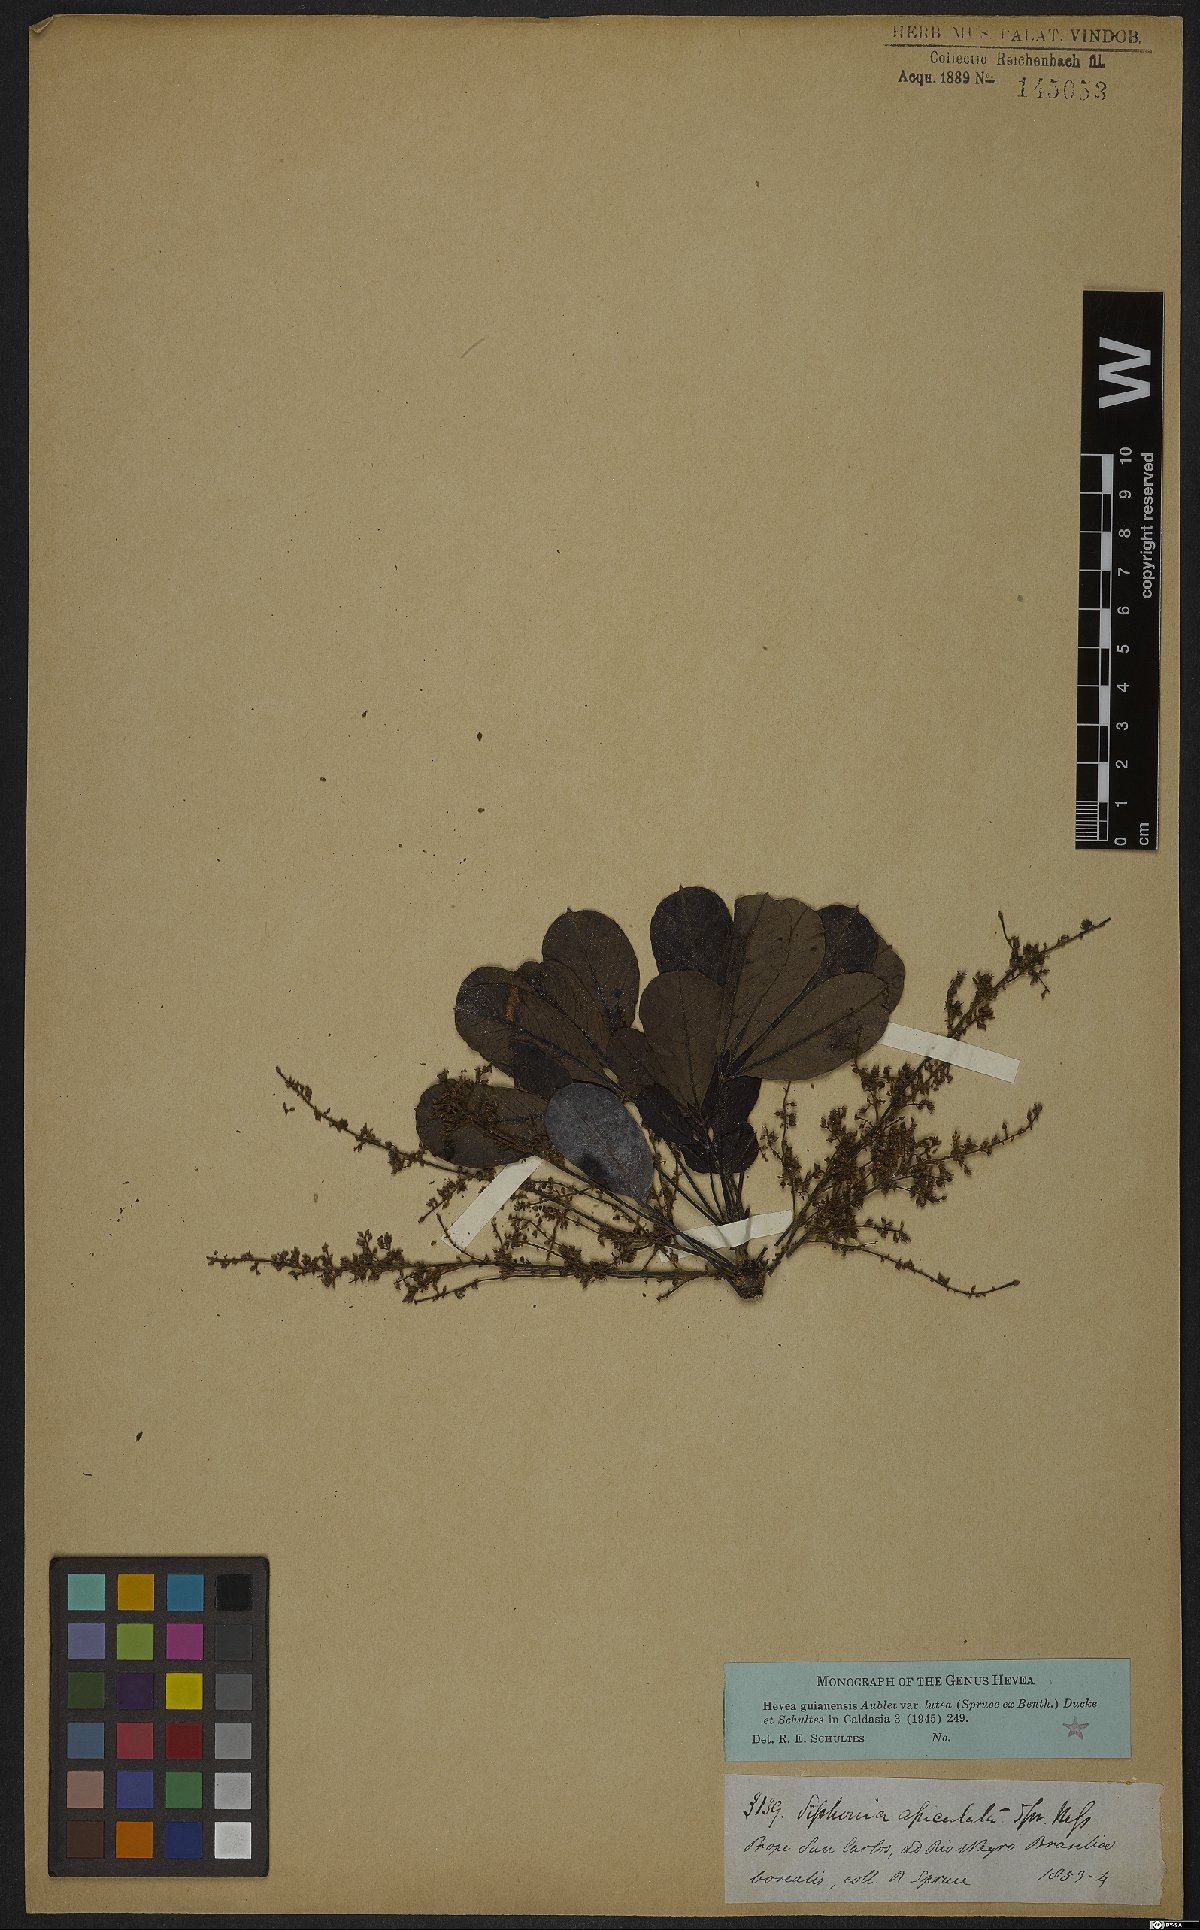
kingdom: Plantae
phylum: Tracheophyta
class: Magnoliopsida
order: Malpighiales
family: Euphorbiaceae
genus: Hevea
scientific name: Hevea guianensis
